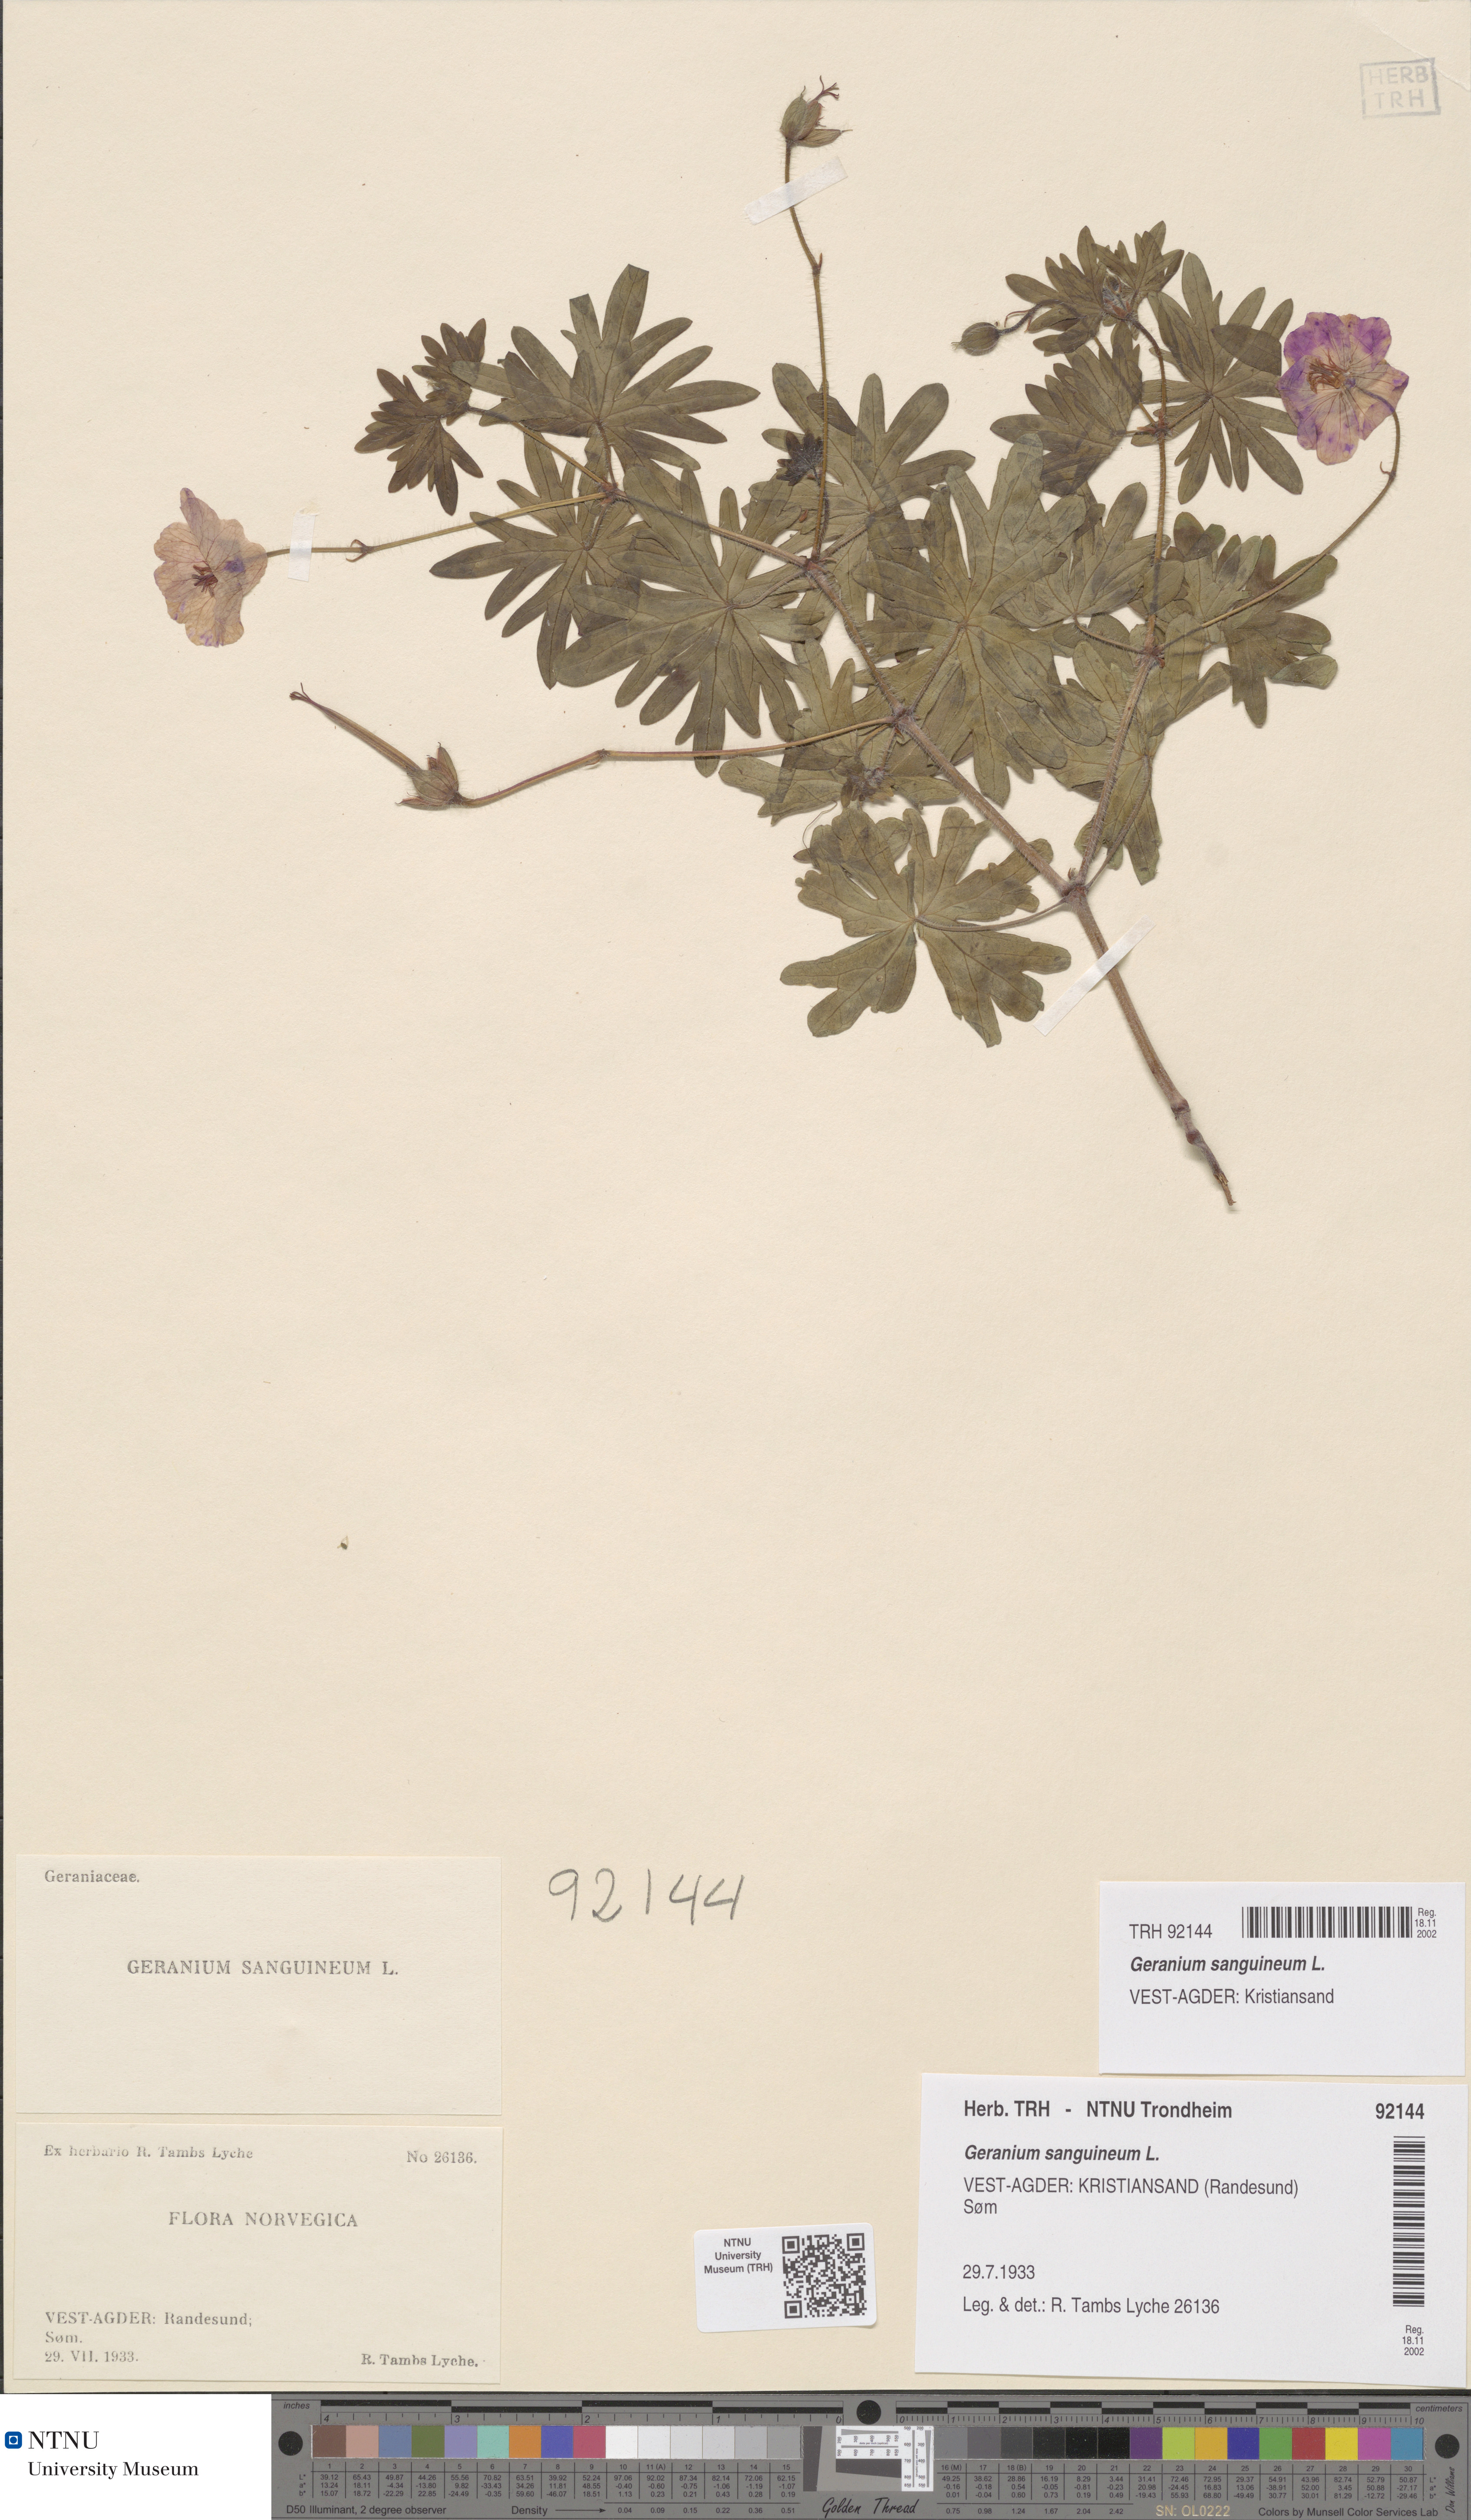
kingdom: Plantae
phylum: Tracheophyta
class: Magnoliopsida
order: Geraniales
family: Geraniaceae
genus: Geranium
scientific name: Geranium sanguineum
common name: Bloody crane's-bill
